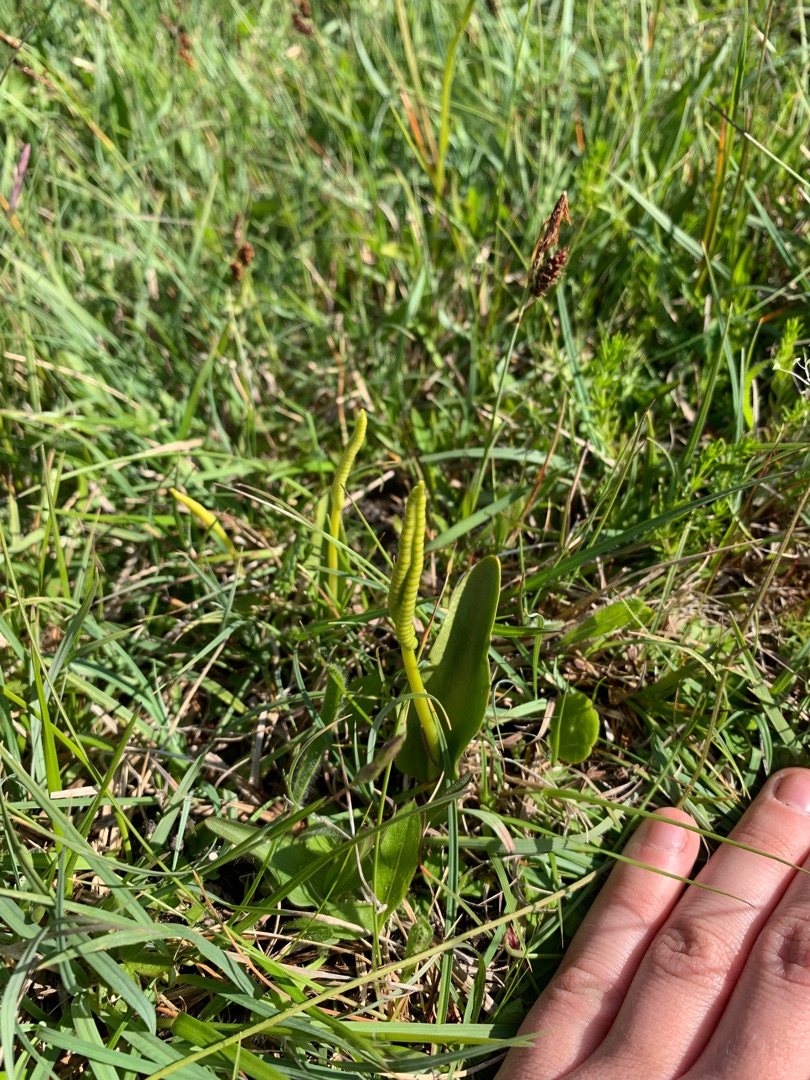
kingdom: Plantae
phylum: Tracheophyta
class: Polypodiopsida
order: Ophioglossales
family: Ophioglossaceae
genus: Ophioglossum
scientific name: Ophioglossum vulgatum
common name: Slangetunge
